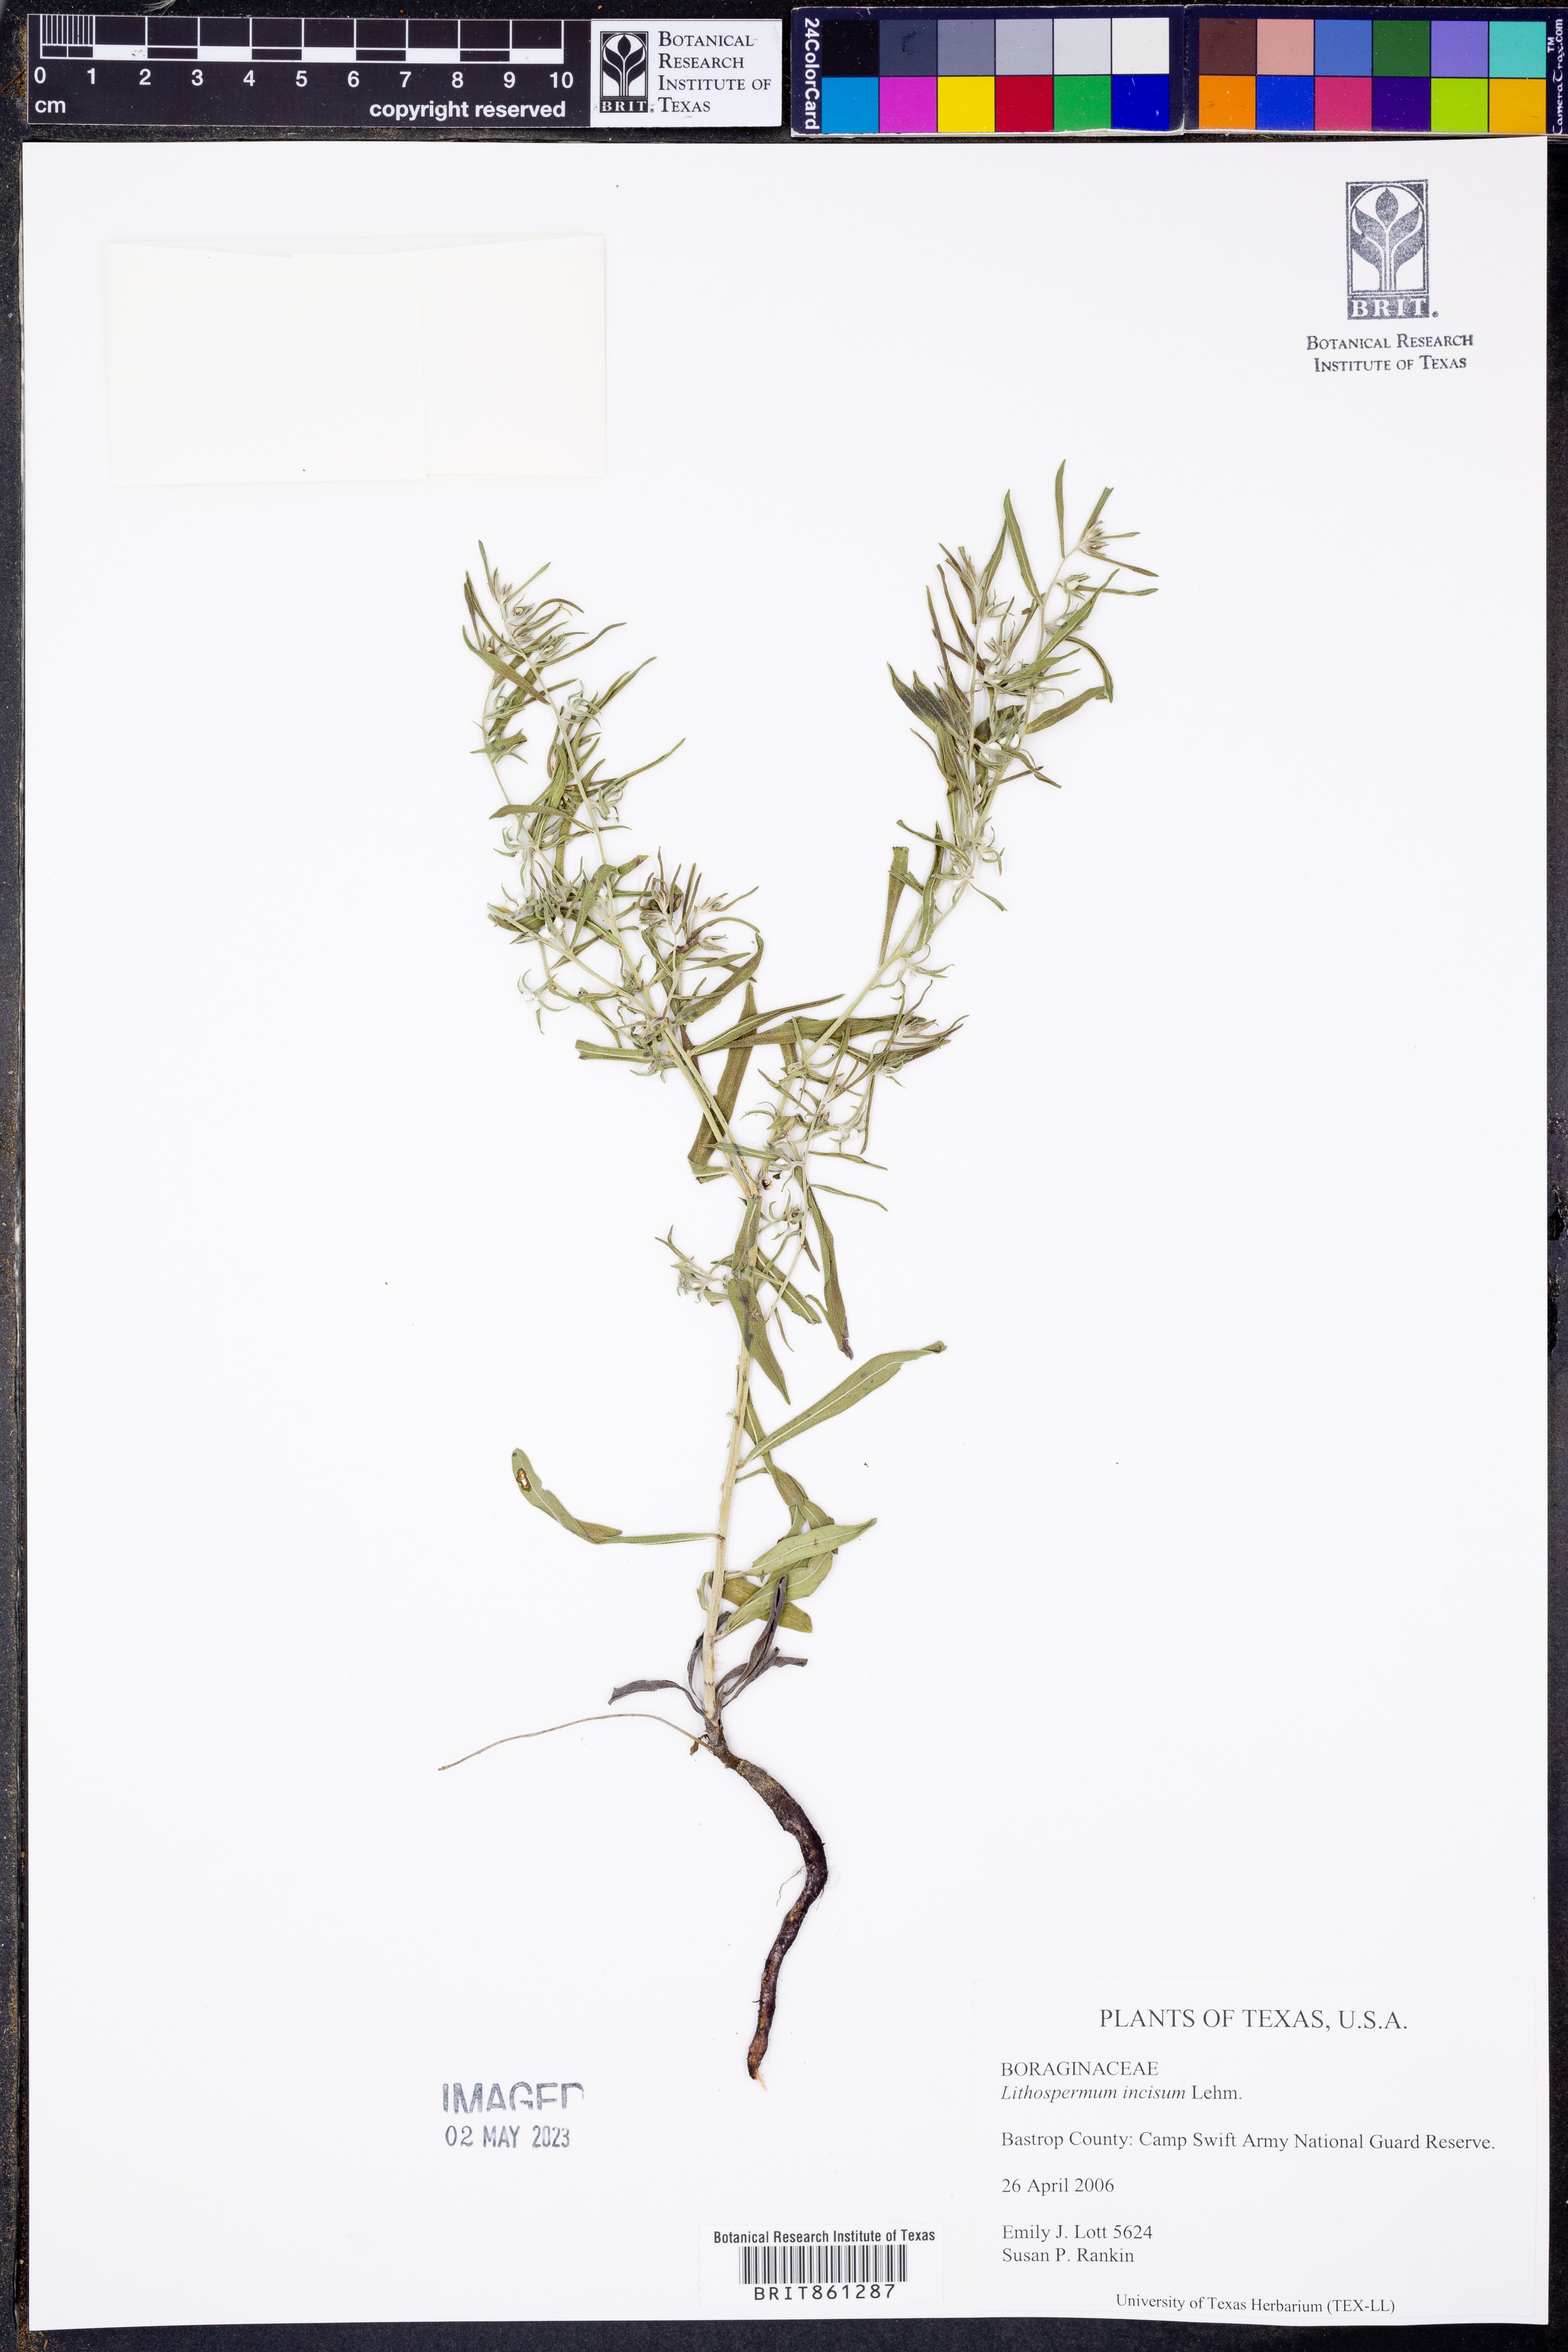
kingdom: Plantae
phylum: Tracheophyta
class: Magnoliopsida
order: Boraginales
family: Boraginaceae
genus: Lithospermum
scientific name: Lithospermum incisum
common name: Fringed gromwell
